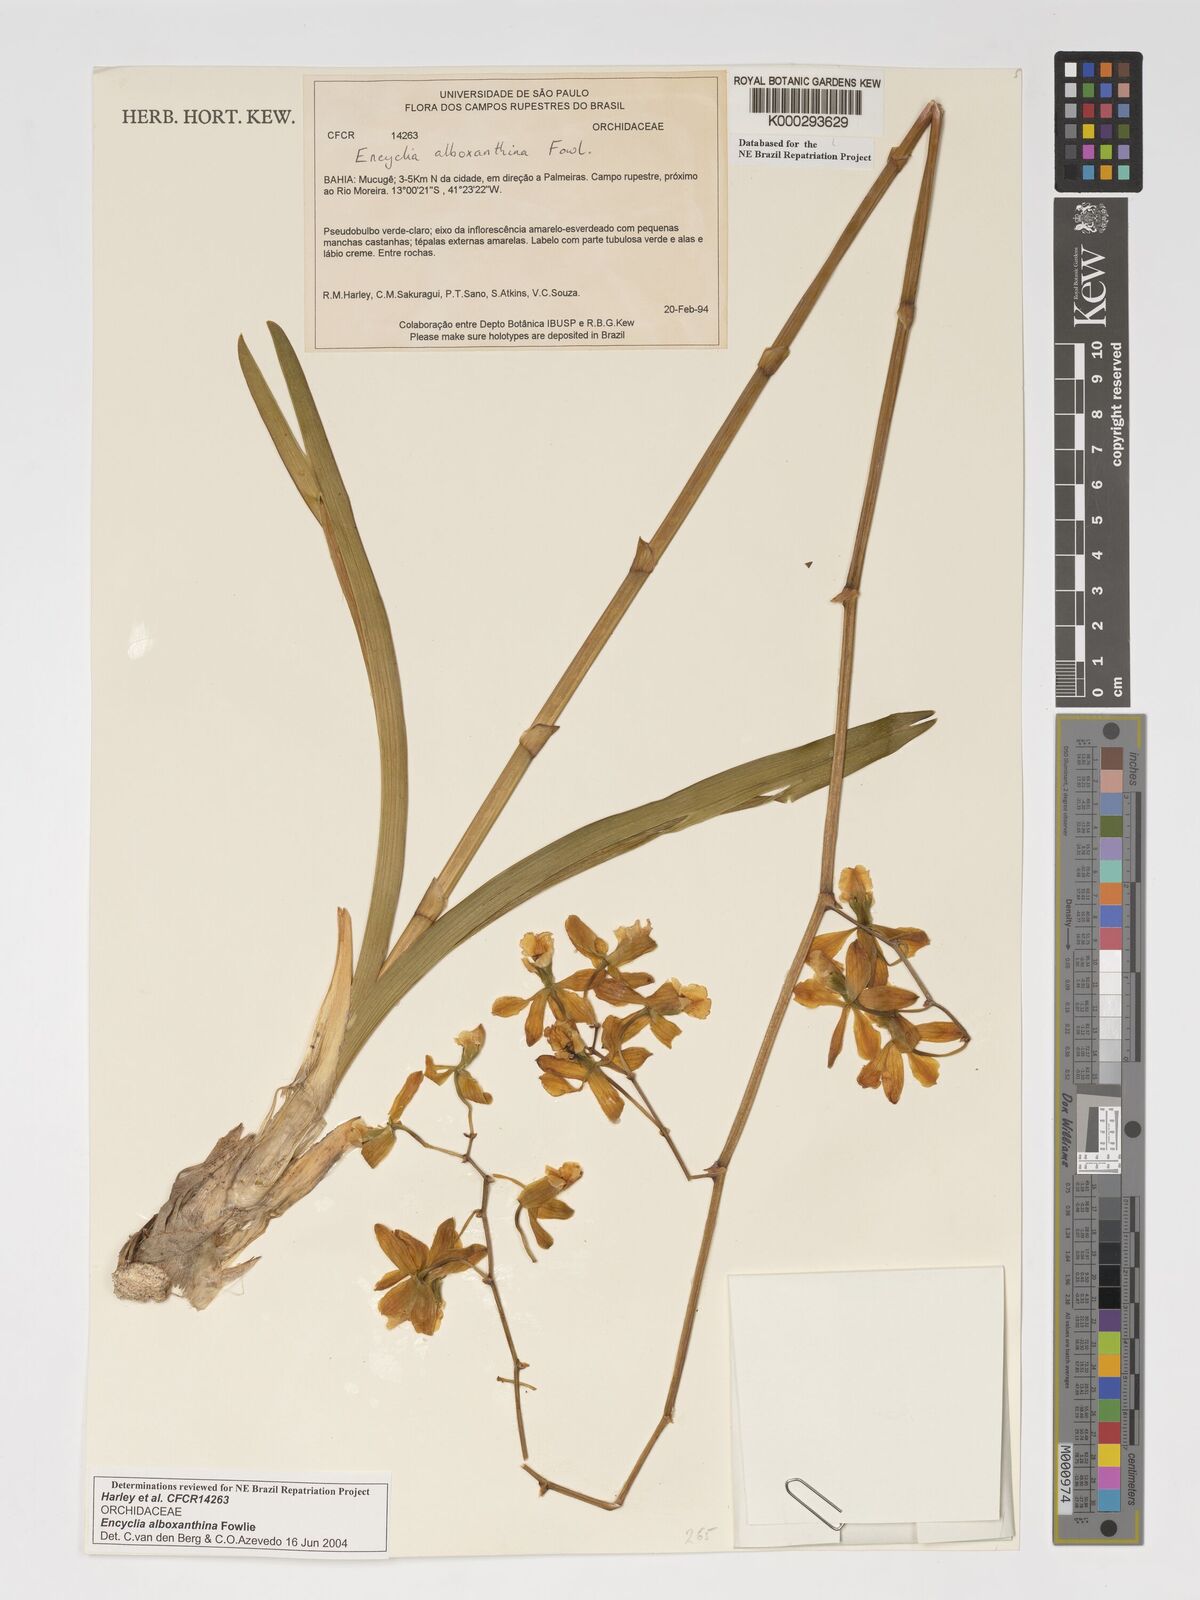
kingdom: Plantae
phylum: Tracheophyta
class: Liliopsida
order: Asparagales
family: Orchidaceae
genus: Encyclia
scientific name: Encyclia alboxanthina
